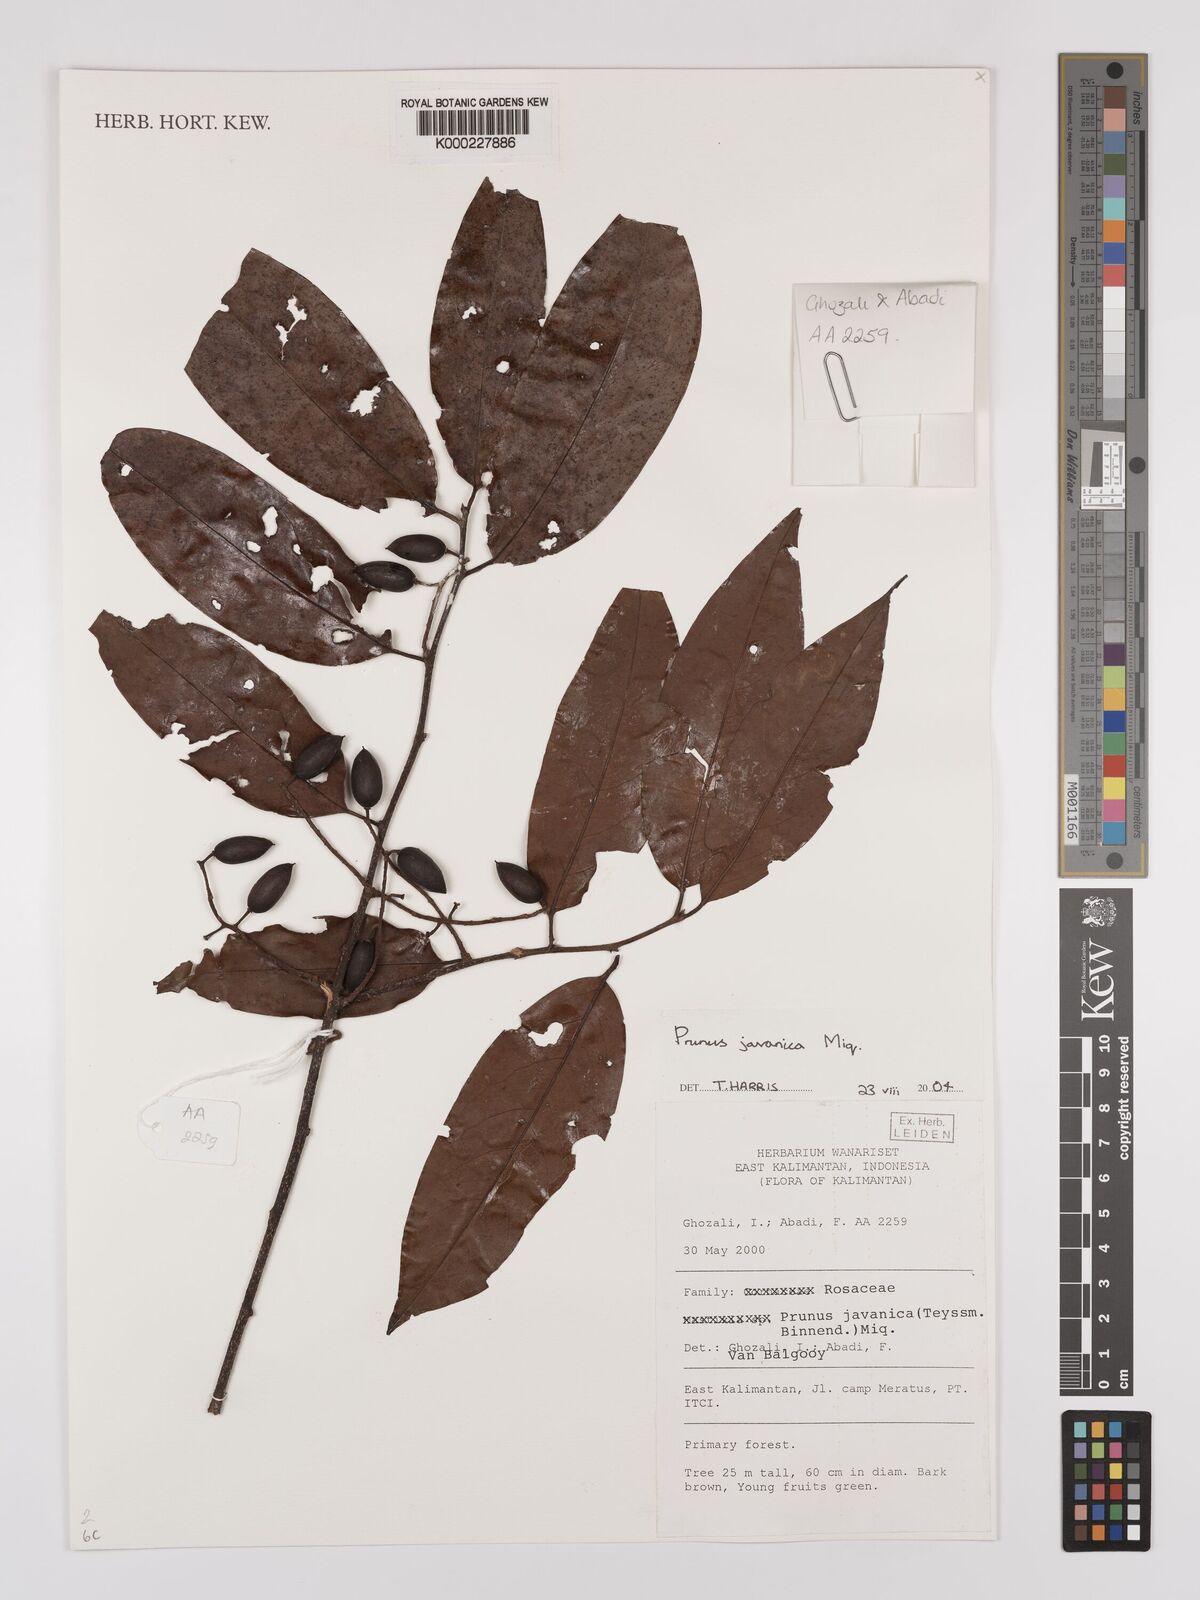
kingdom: Plantae
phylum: Tracheophyta
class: Magnoliopsida
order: Rosales
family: Rosaceae
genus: Prunus
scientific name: Prunus javanica
